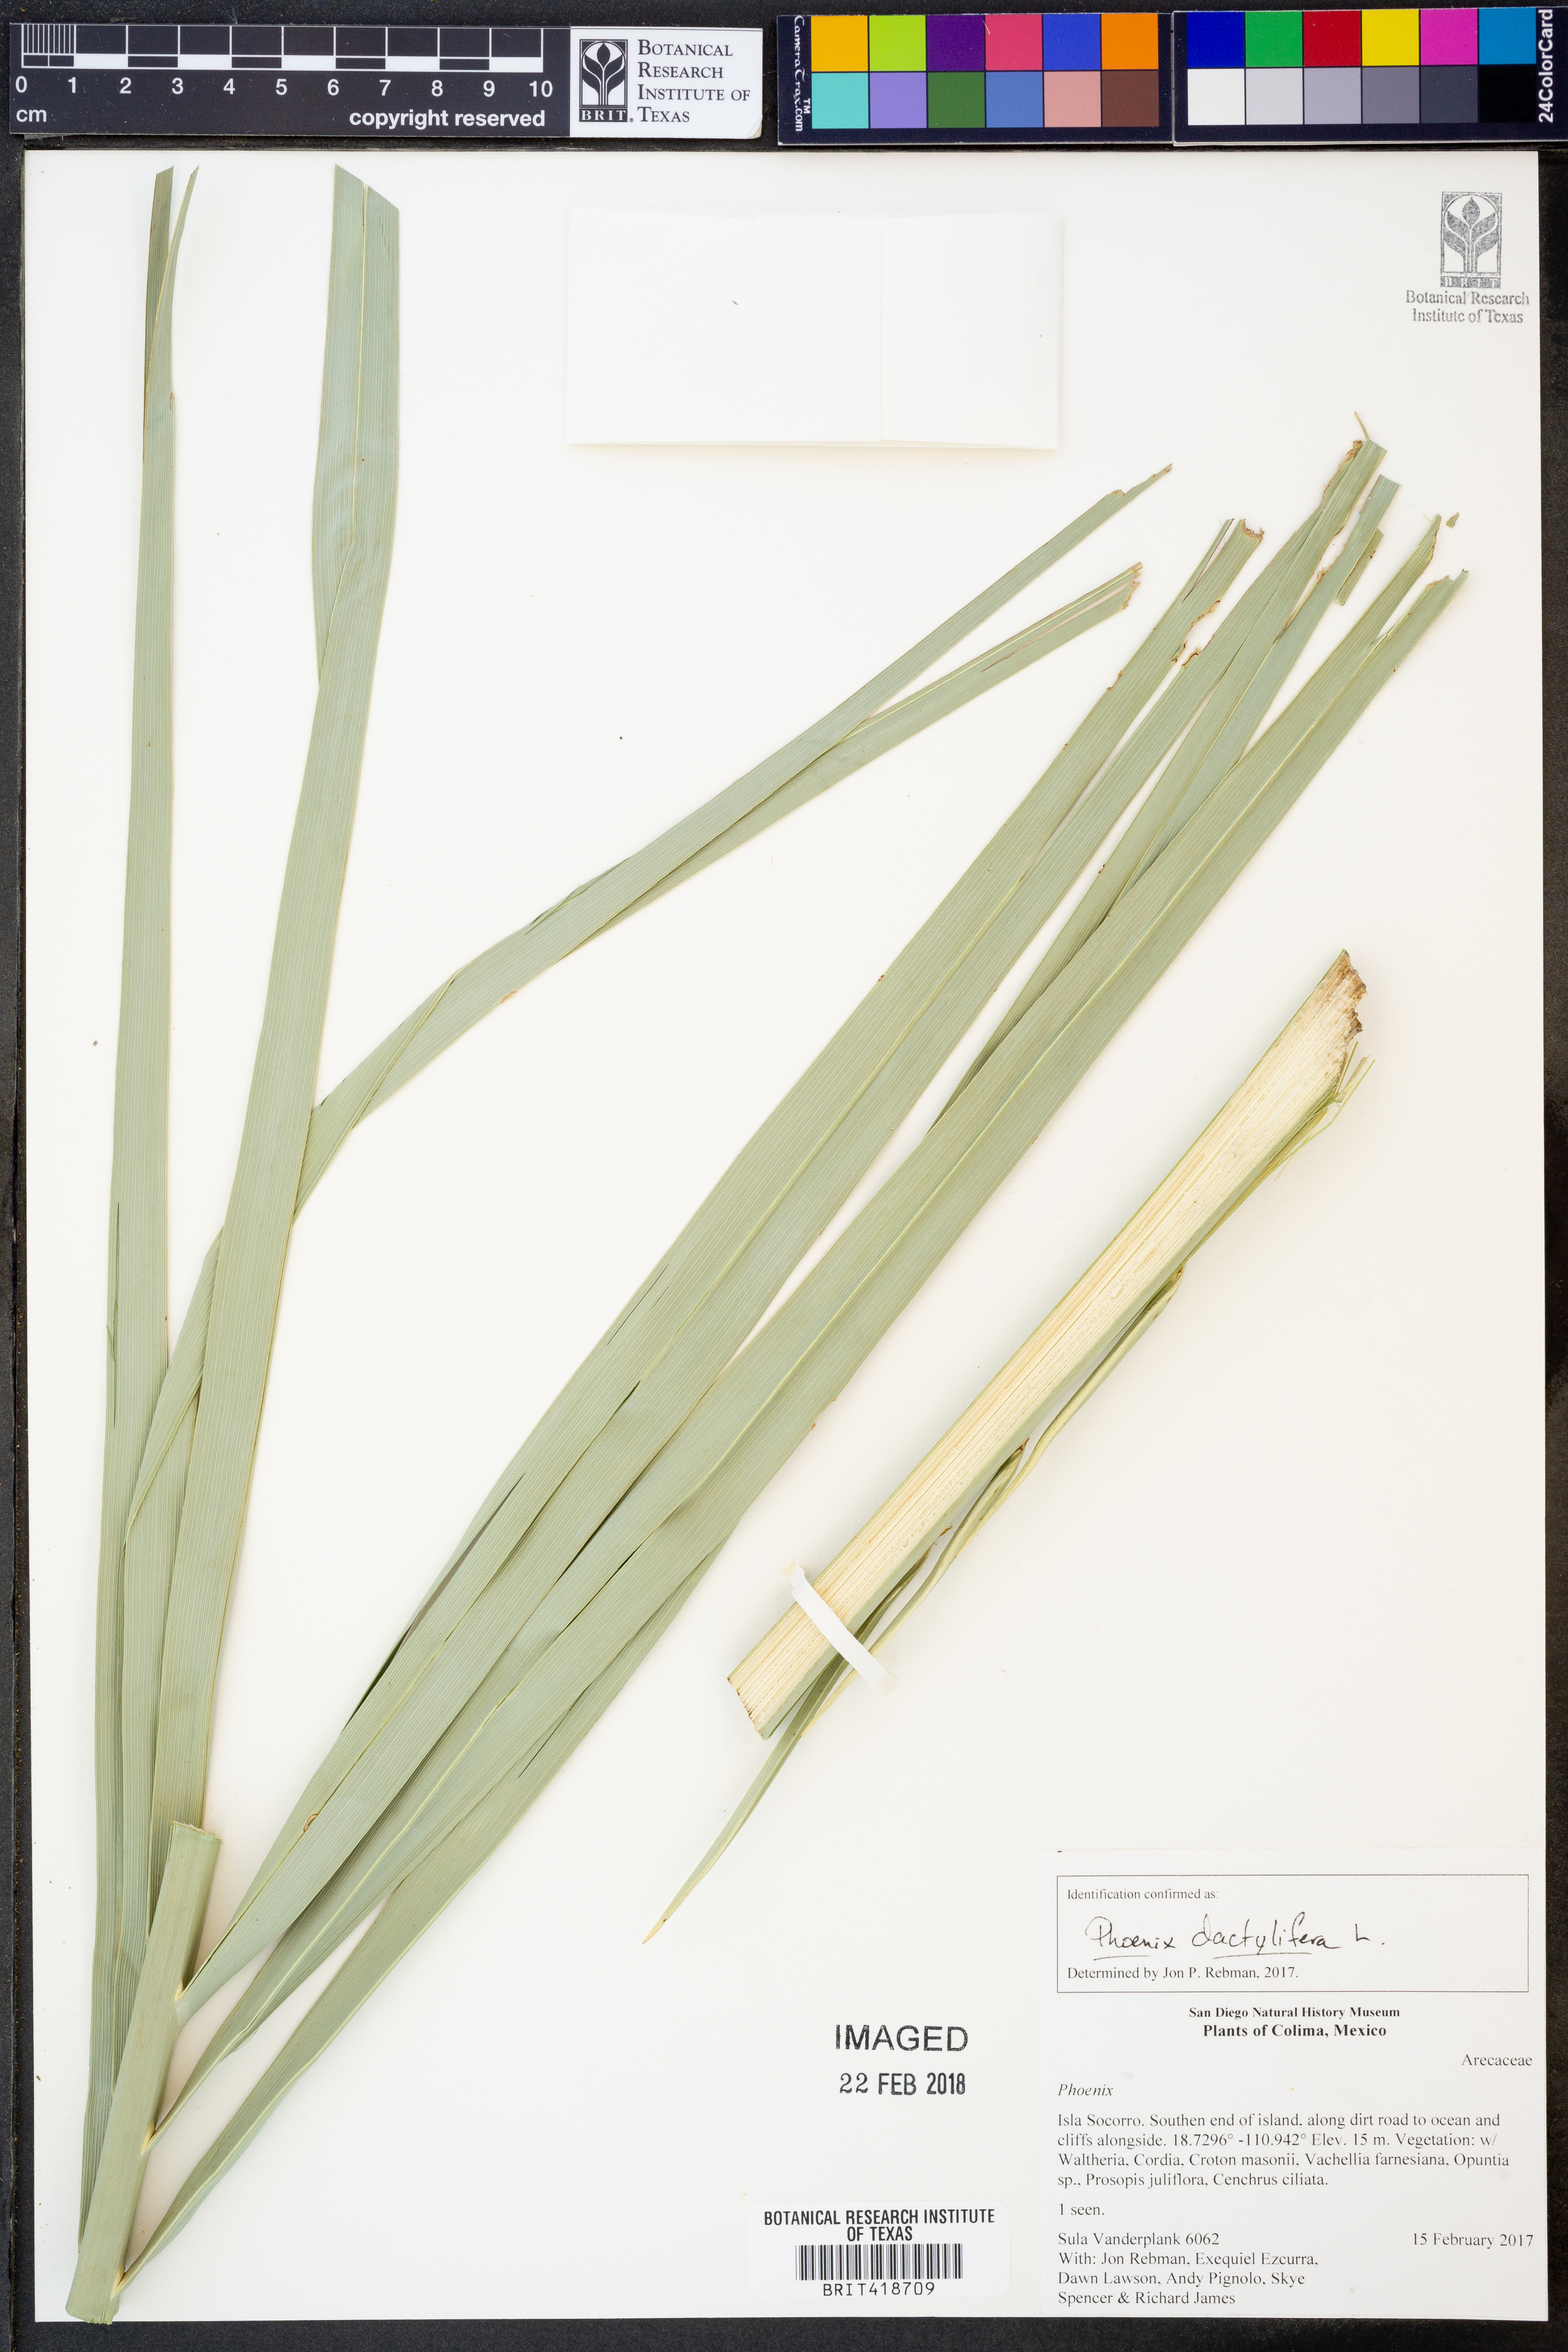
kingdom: Plantae
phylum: Tracheophyta
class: Liliopsida
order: Arecales
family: Arecaceae
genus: Phoenix
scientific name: Phoenix dactylifera
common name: Date palm
